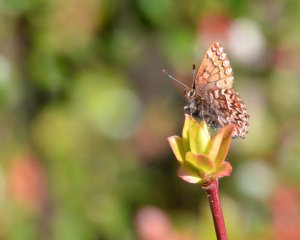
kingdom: Animalia
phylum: Arthropoda
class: Insecta
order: Lepidoptera
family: Lycaenidae
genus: Incisalia
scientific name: Incisalia eryphon
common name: Western Pine Elfin
